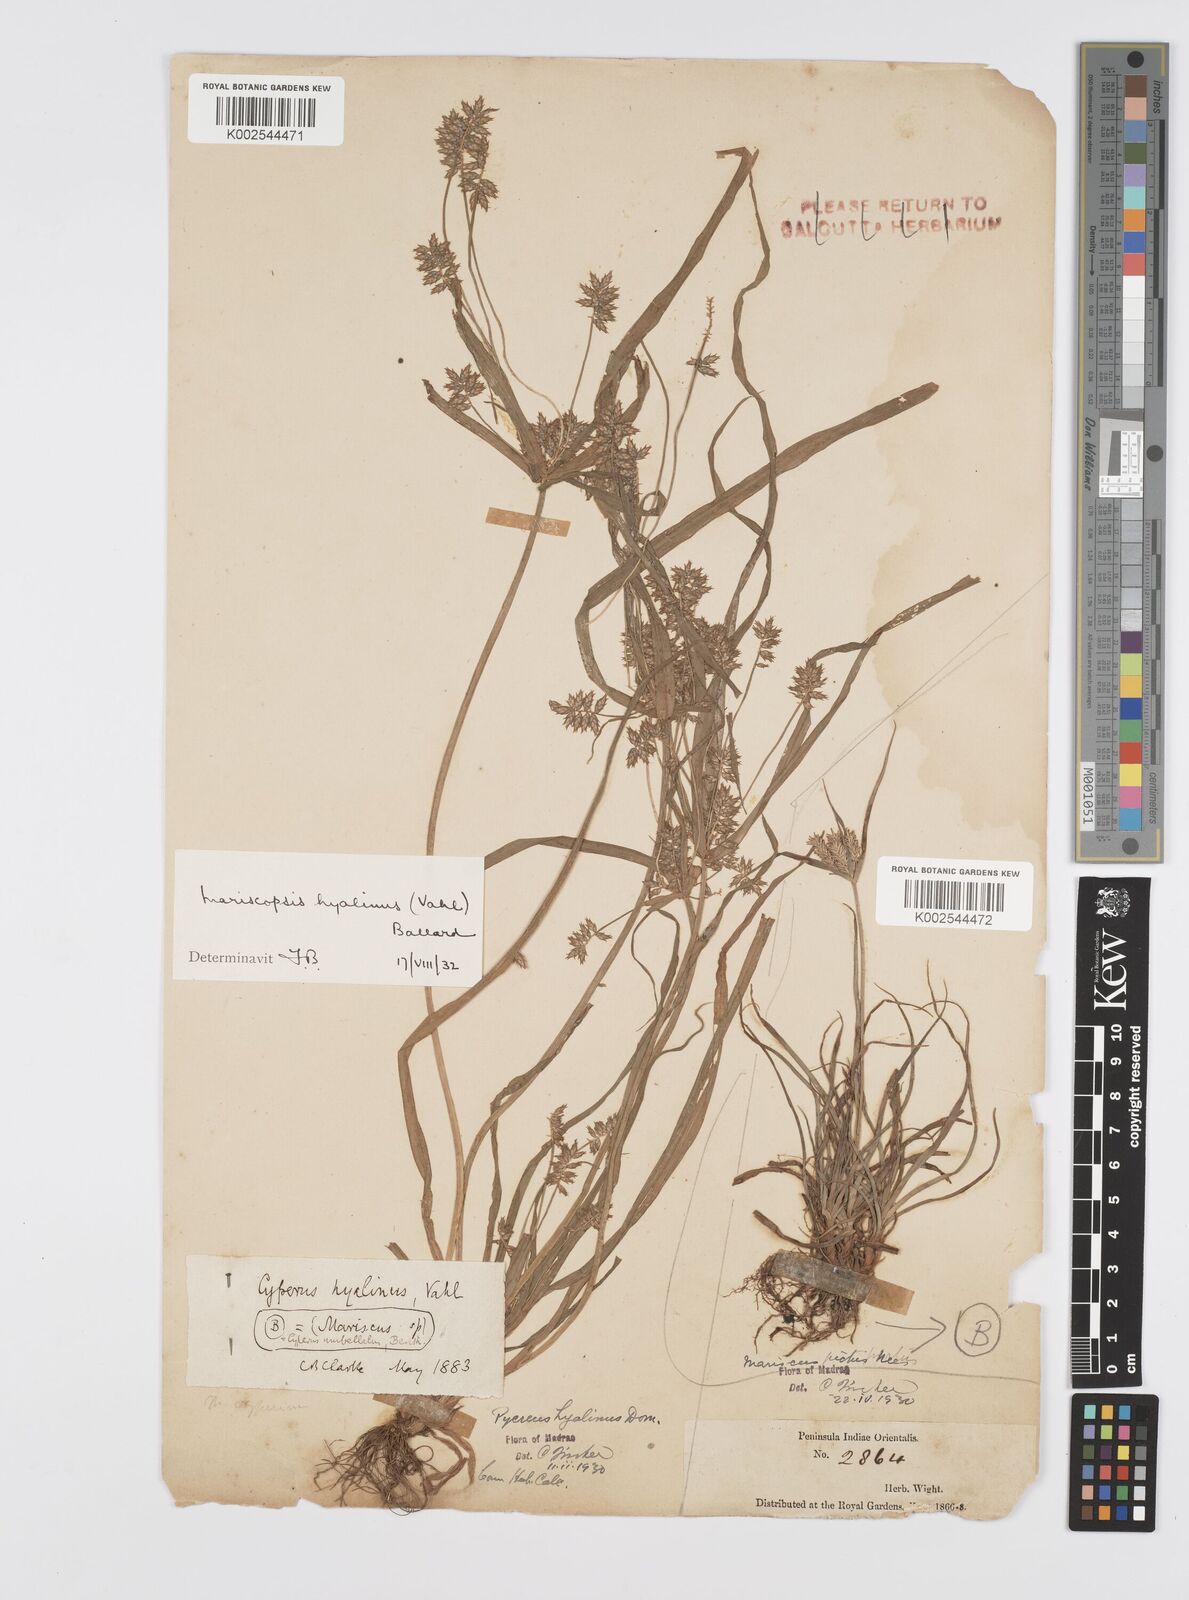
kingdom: Plantae
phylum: Tracheophyta
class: Liliopsida
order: Poales
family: Cyperaceae
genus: Cyperus
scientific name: Cyperus hyalinus
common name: Queensland sedge
